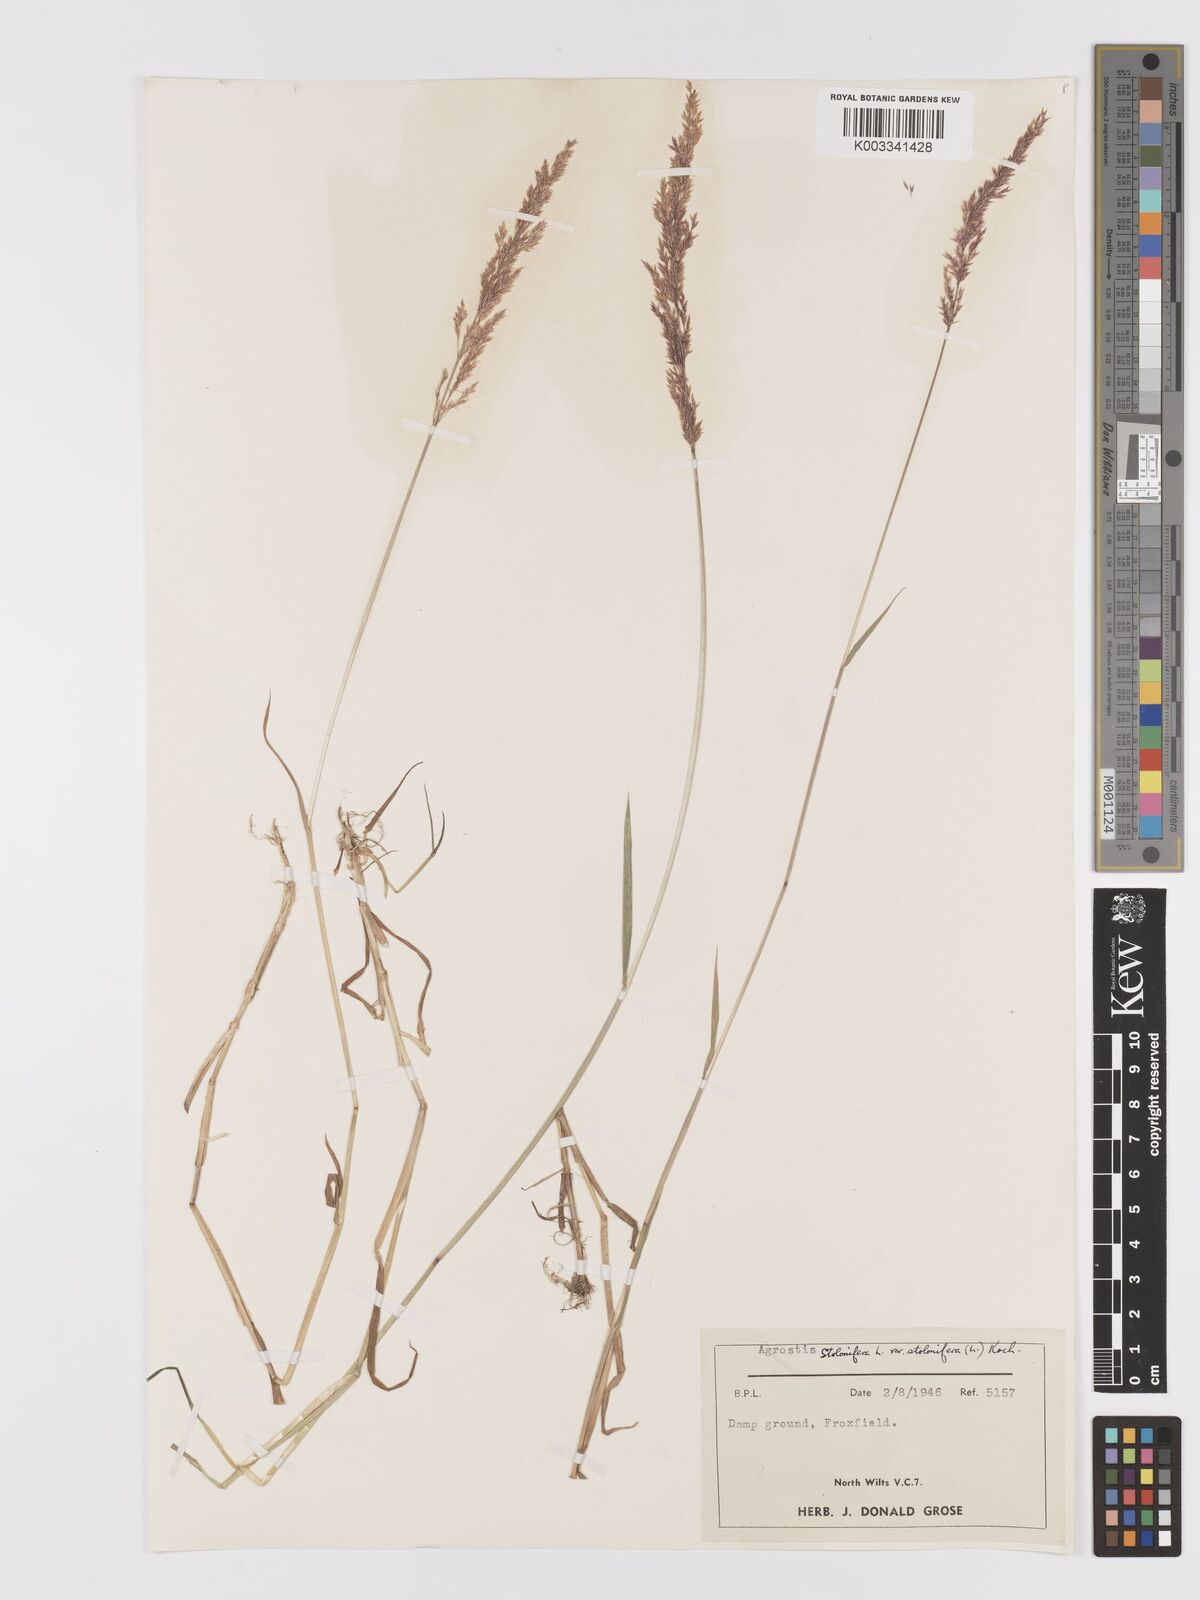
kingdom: Plantae
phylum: Tracheophyta
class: Liliopsida
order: Poales
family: Poaceae
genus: Agrostis
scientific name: Agrostis stolonifera
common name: Creeping bentgrass
